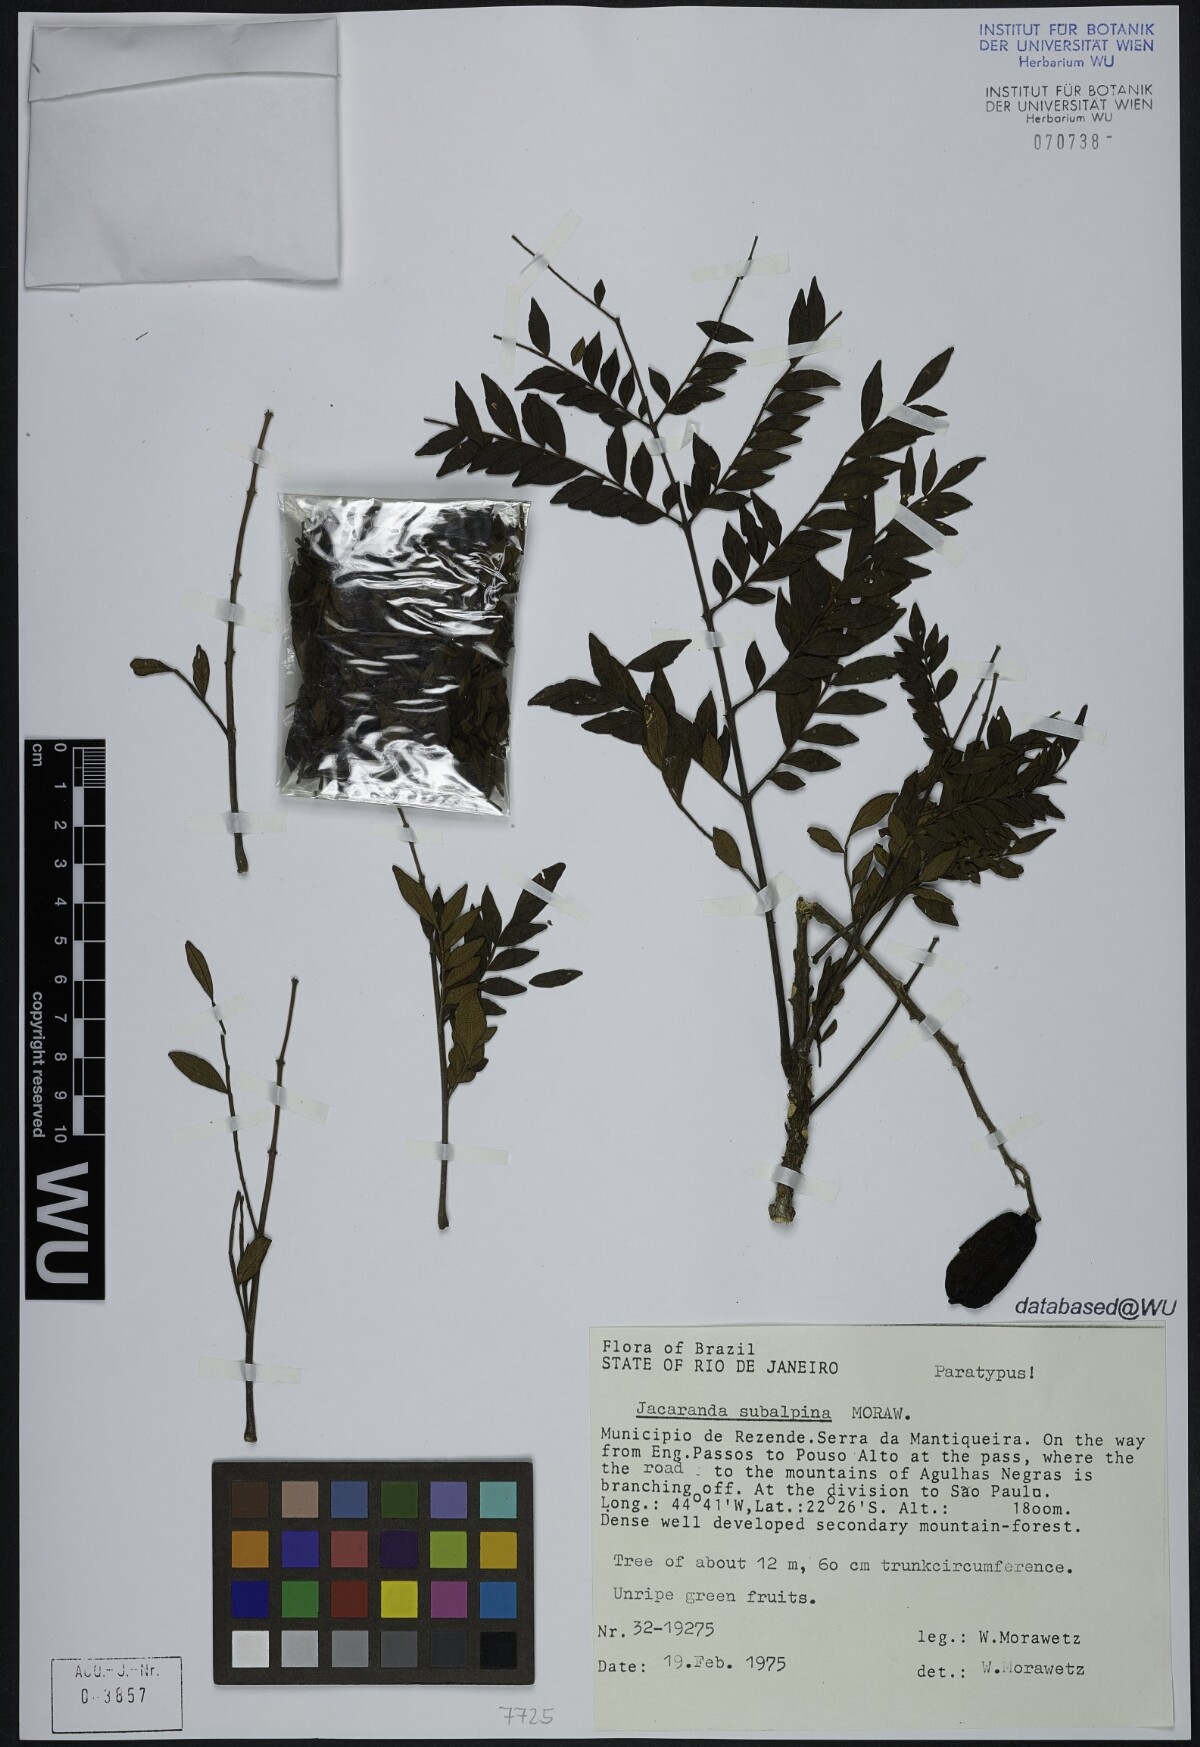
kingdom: Plantae
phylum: Tracheophyta
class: Magnoliopsida
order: Lamiales
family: Bignoniaceae
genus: Jacaranda
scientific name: Jacaranda subalpina
